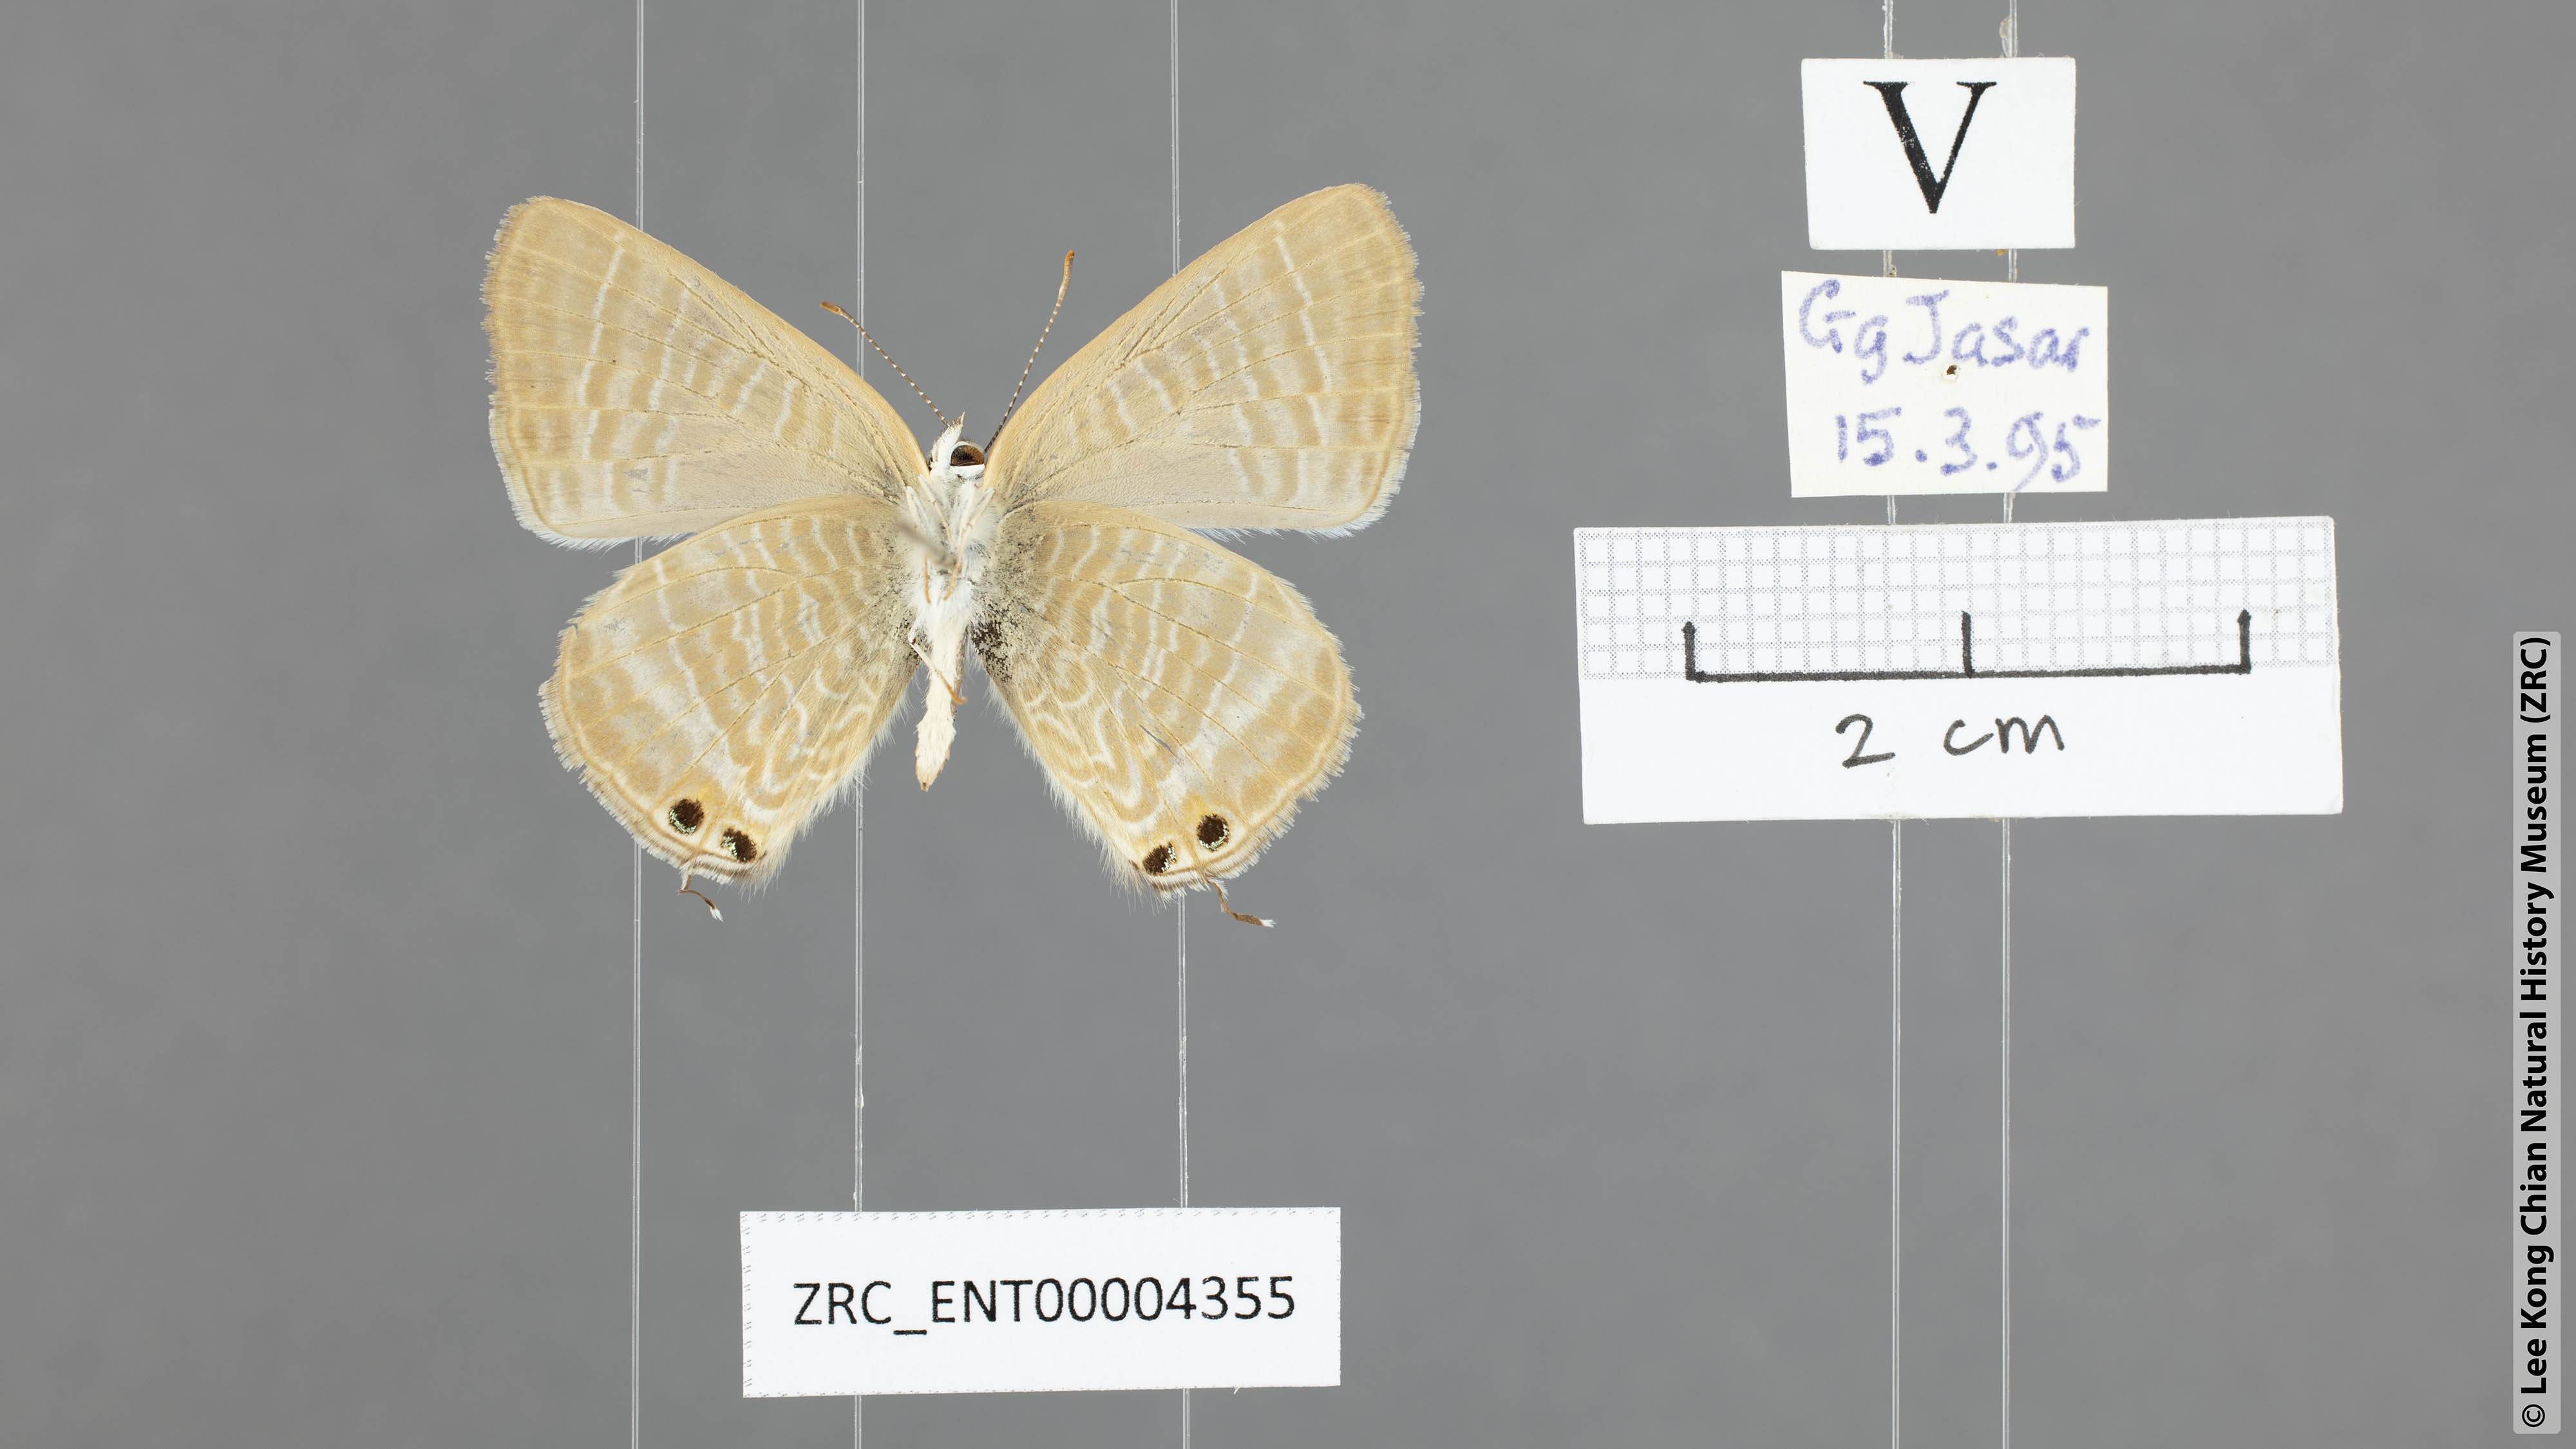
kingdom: Animalia
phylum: Arthropoda
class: Insecta
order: Lepidoptera
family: Lycaenidae
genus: Lampides
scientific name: Lampides boeticus
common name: Long-tailed blue
